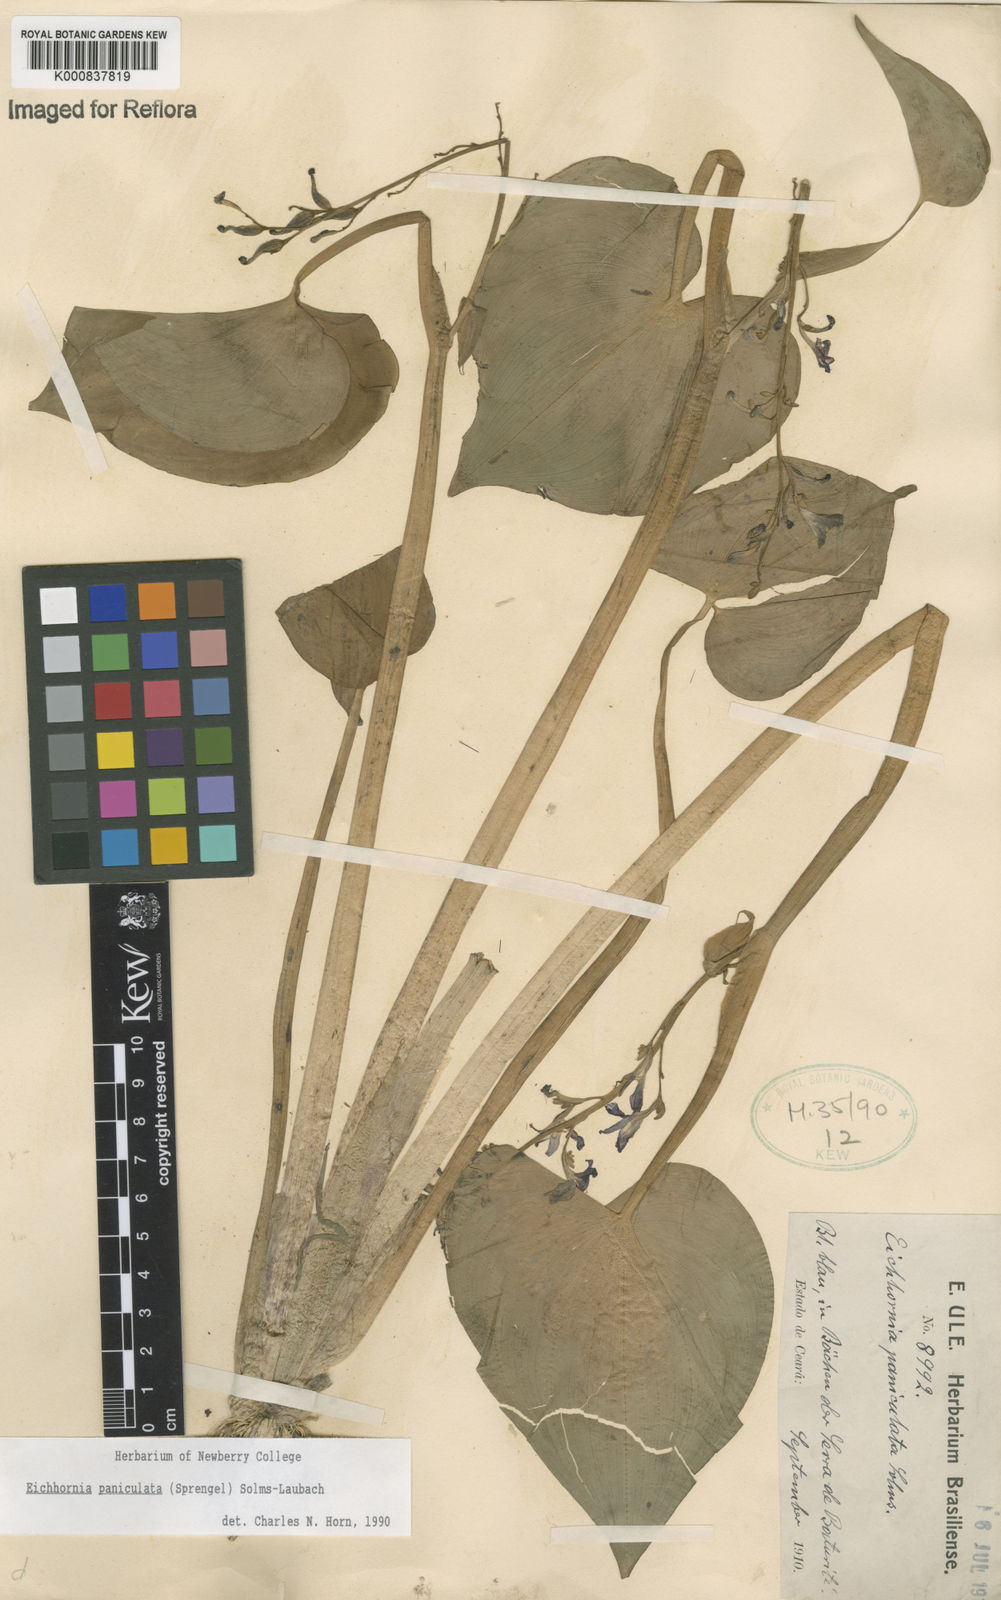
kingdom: Plantae
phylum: Tracheophyta
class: Liliopsida
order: Commelinales
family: Pontederiaceae
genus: Pontederia
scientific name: Pontederia paniculata
